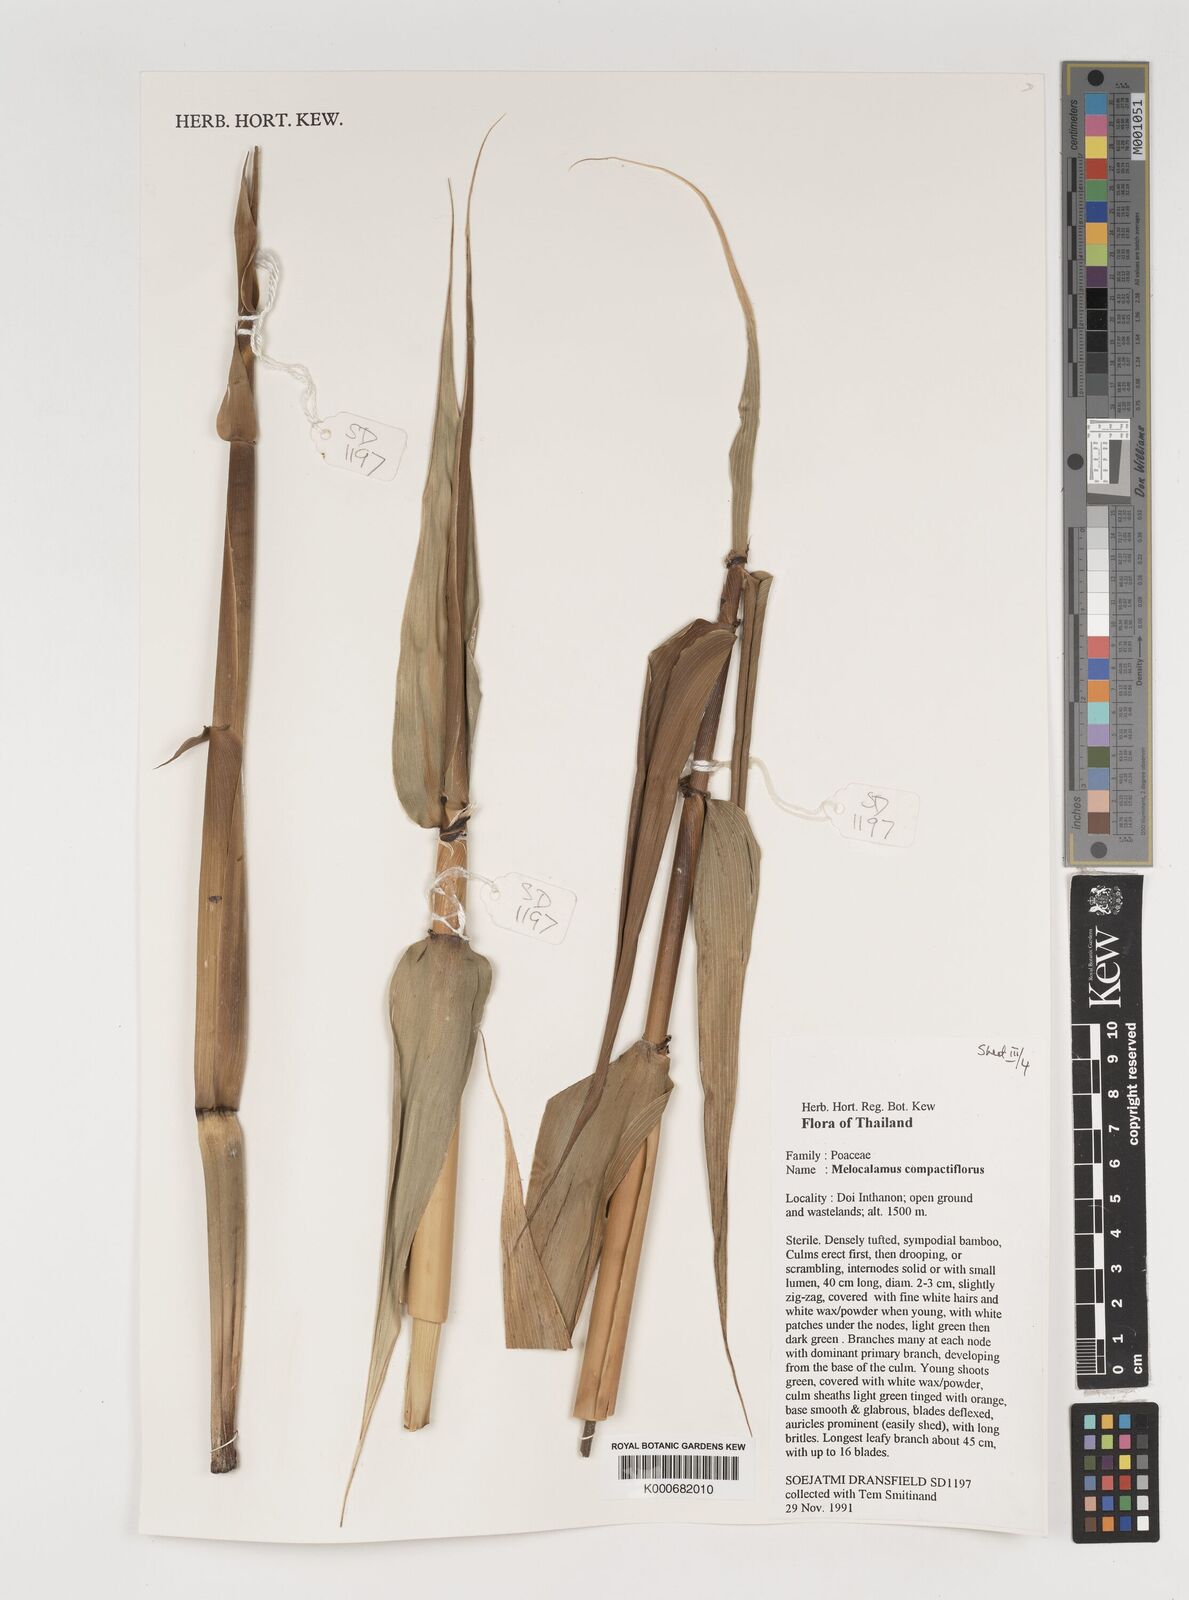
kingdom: Plantae
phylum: Tracheophyta
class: Liliopsida
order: Poales
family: Poaceae
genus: Melocalamus
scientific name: Melocalamus compactiflorus
